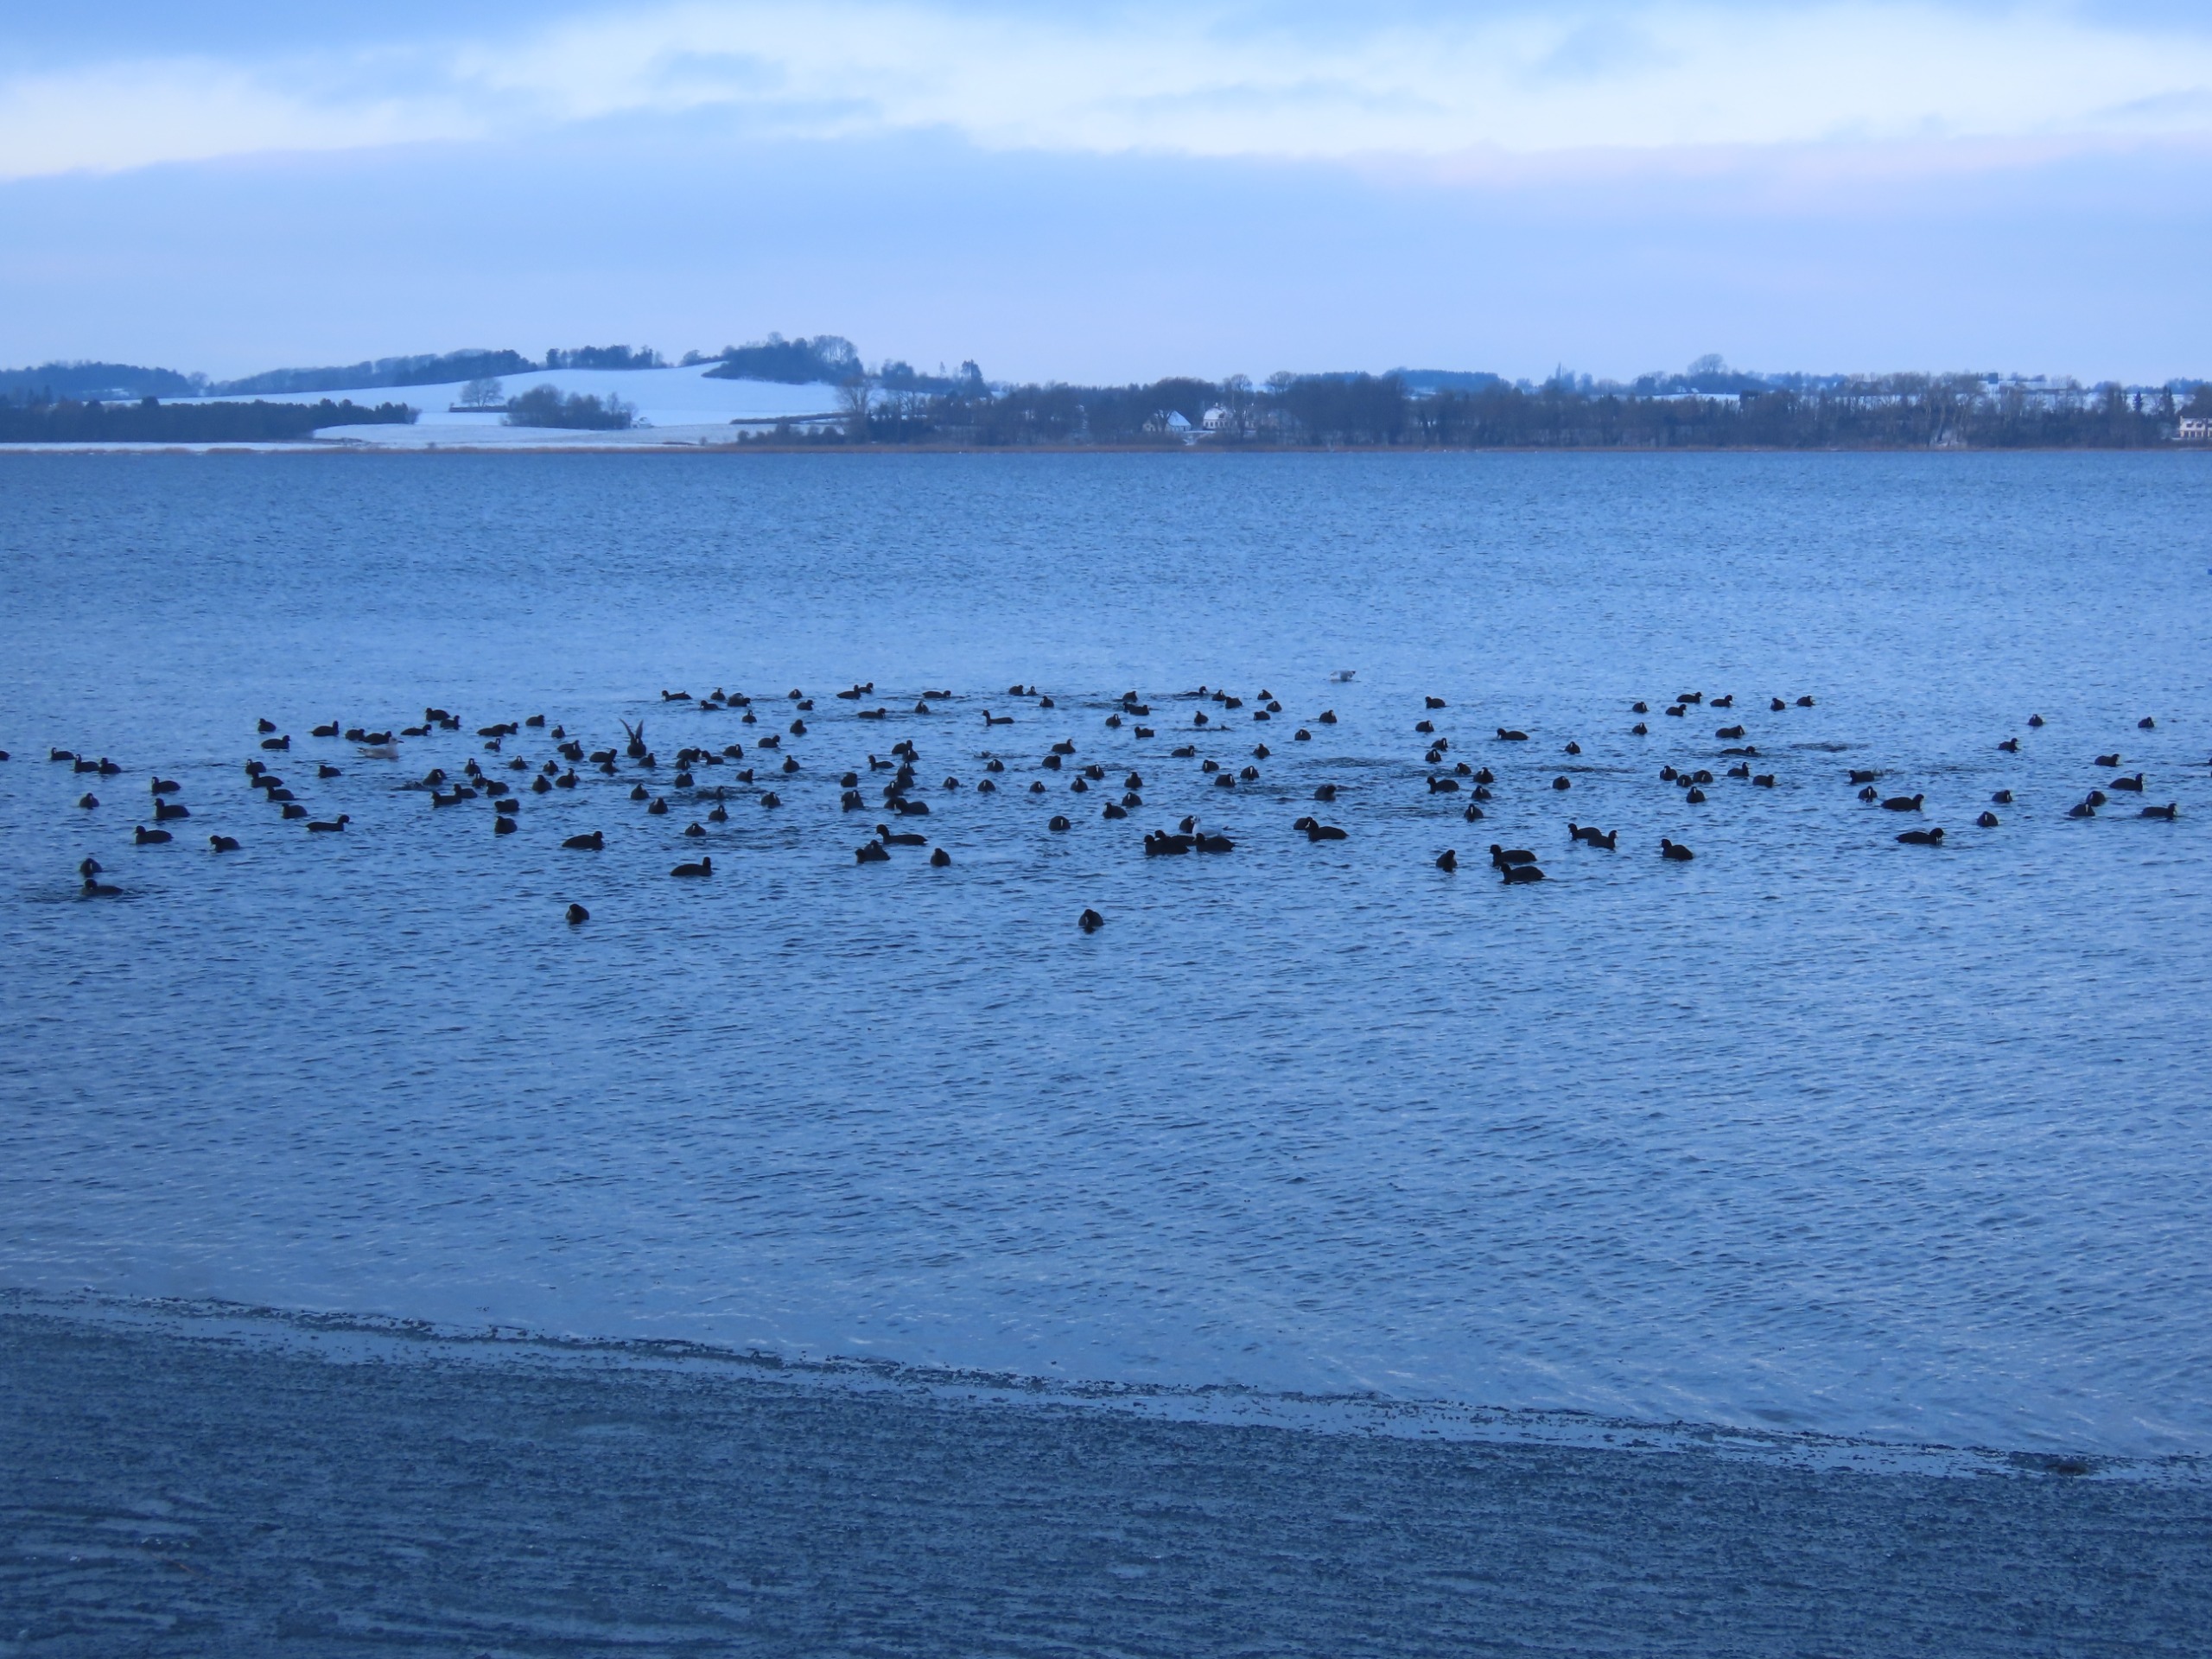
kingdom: Animalia
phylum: Chordata
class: Aves
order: Gruiformes
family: Rallidae
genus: Fulica
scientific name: Fulica atra
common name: Blishøne
